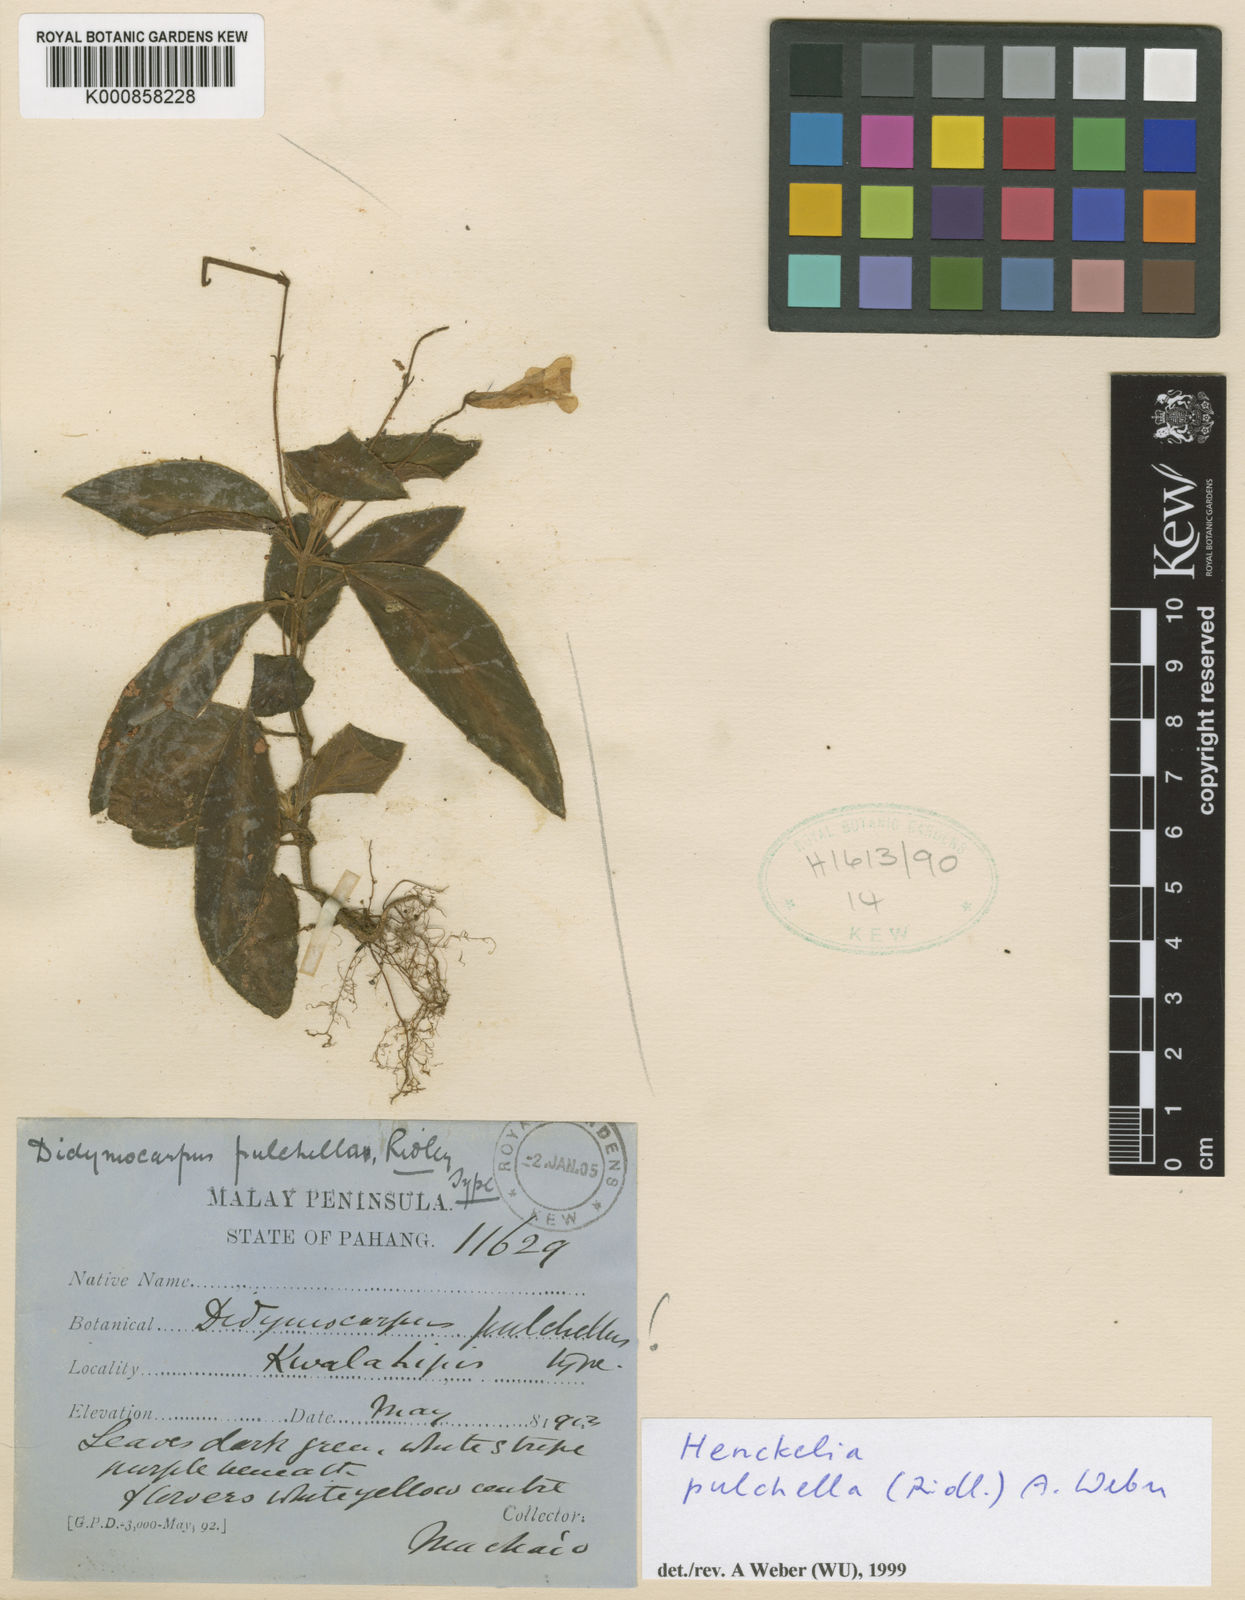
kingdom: Plantae
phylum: Tracheophyta
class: Magnoliopsida
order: Lamiales
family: Gesneriaceae
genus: Codonoboea
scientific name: Codonoboea pulchella
